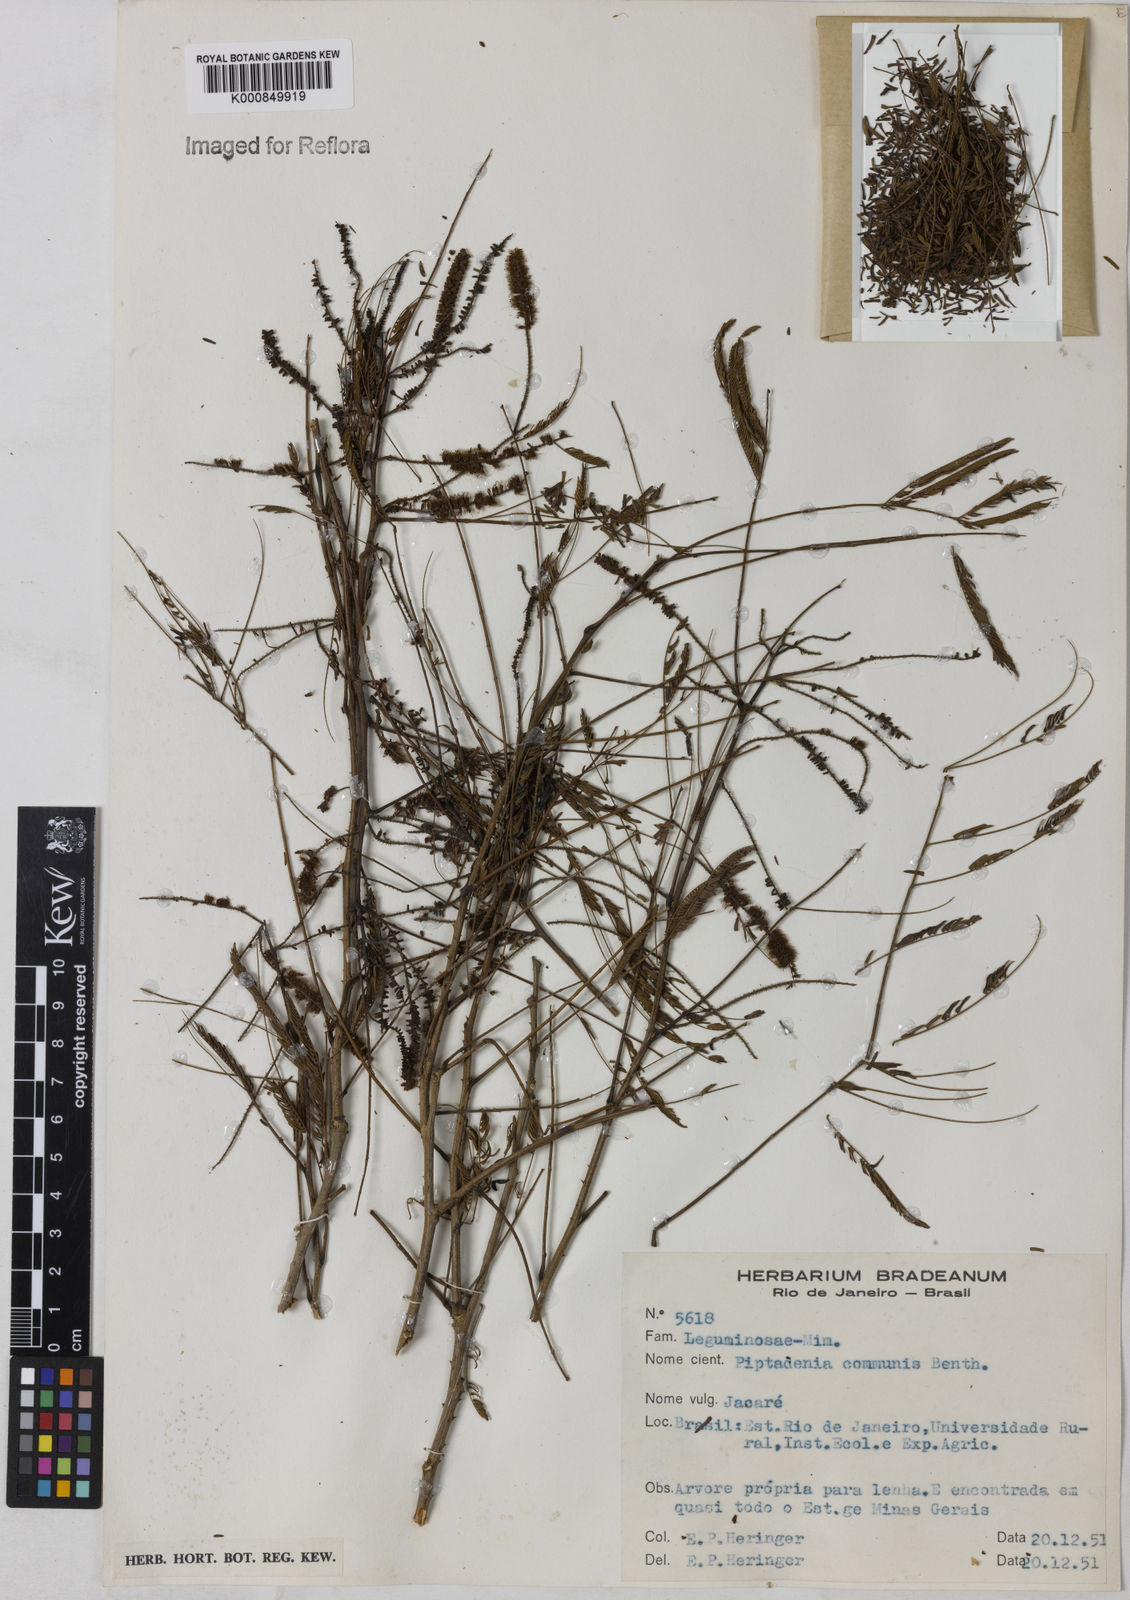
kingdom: Plantae
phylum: Tracheophyta
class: Magnoliopsida
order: Fabales
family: Fabaceae
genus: Piptadenia
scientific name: Piptadenia retusa
